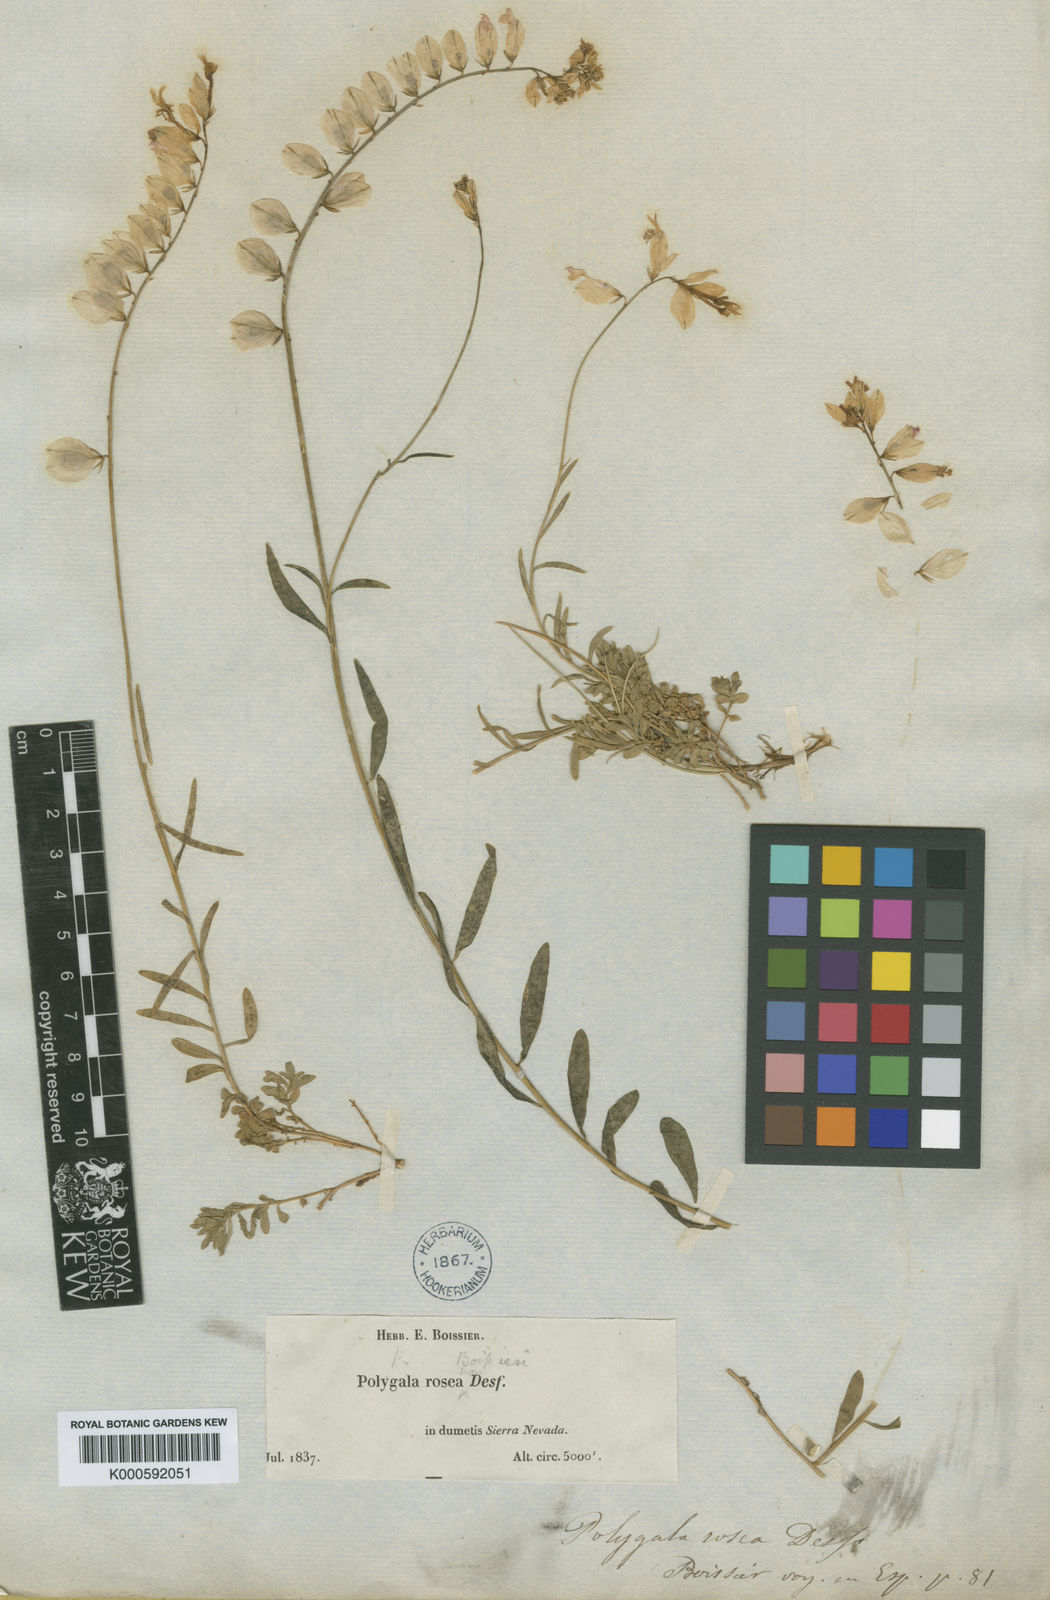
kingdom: Plantae
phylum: Tracheophyta
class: Magnoliopsida
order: Fabales
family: Polygalaceae
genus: Polygala
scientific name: Polygala boissieri
